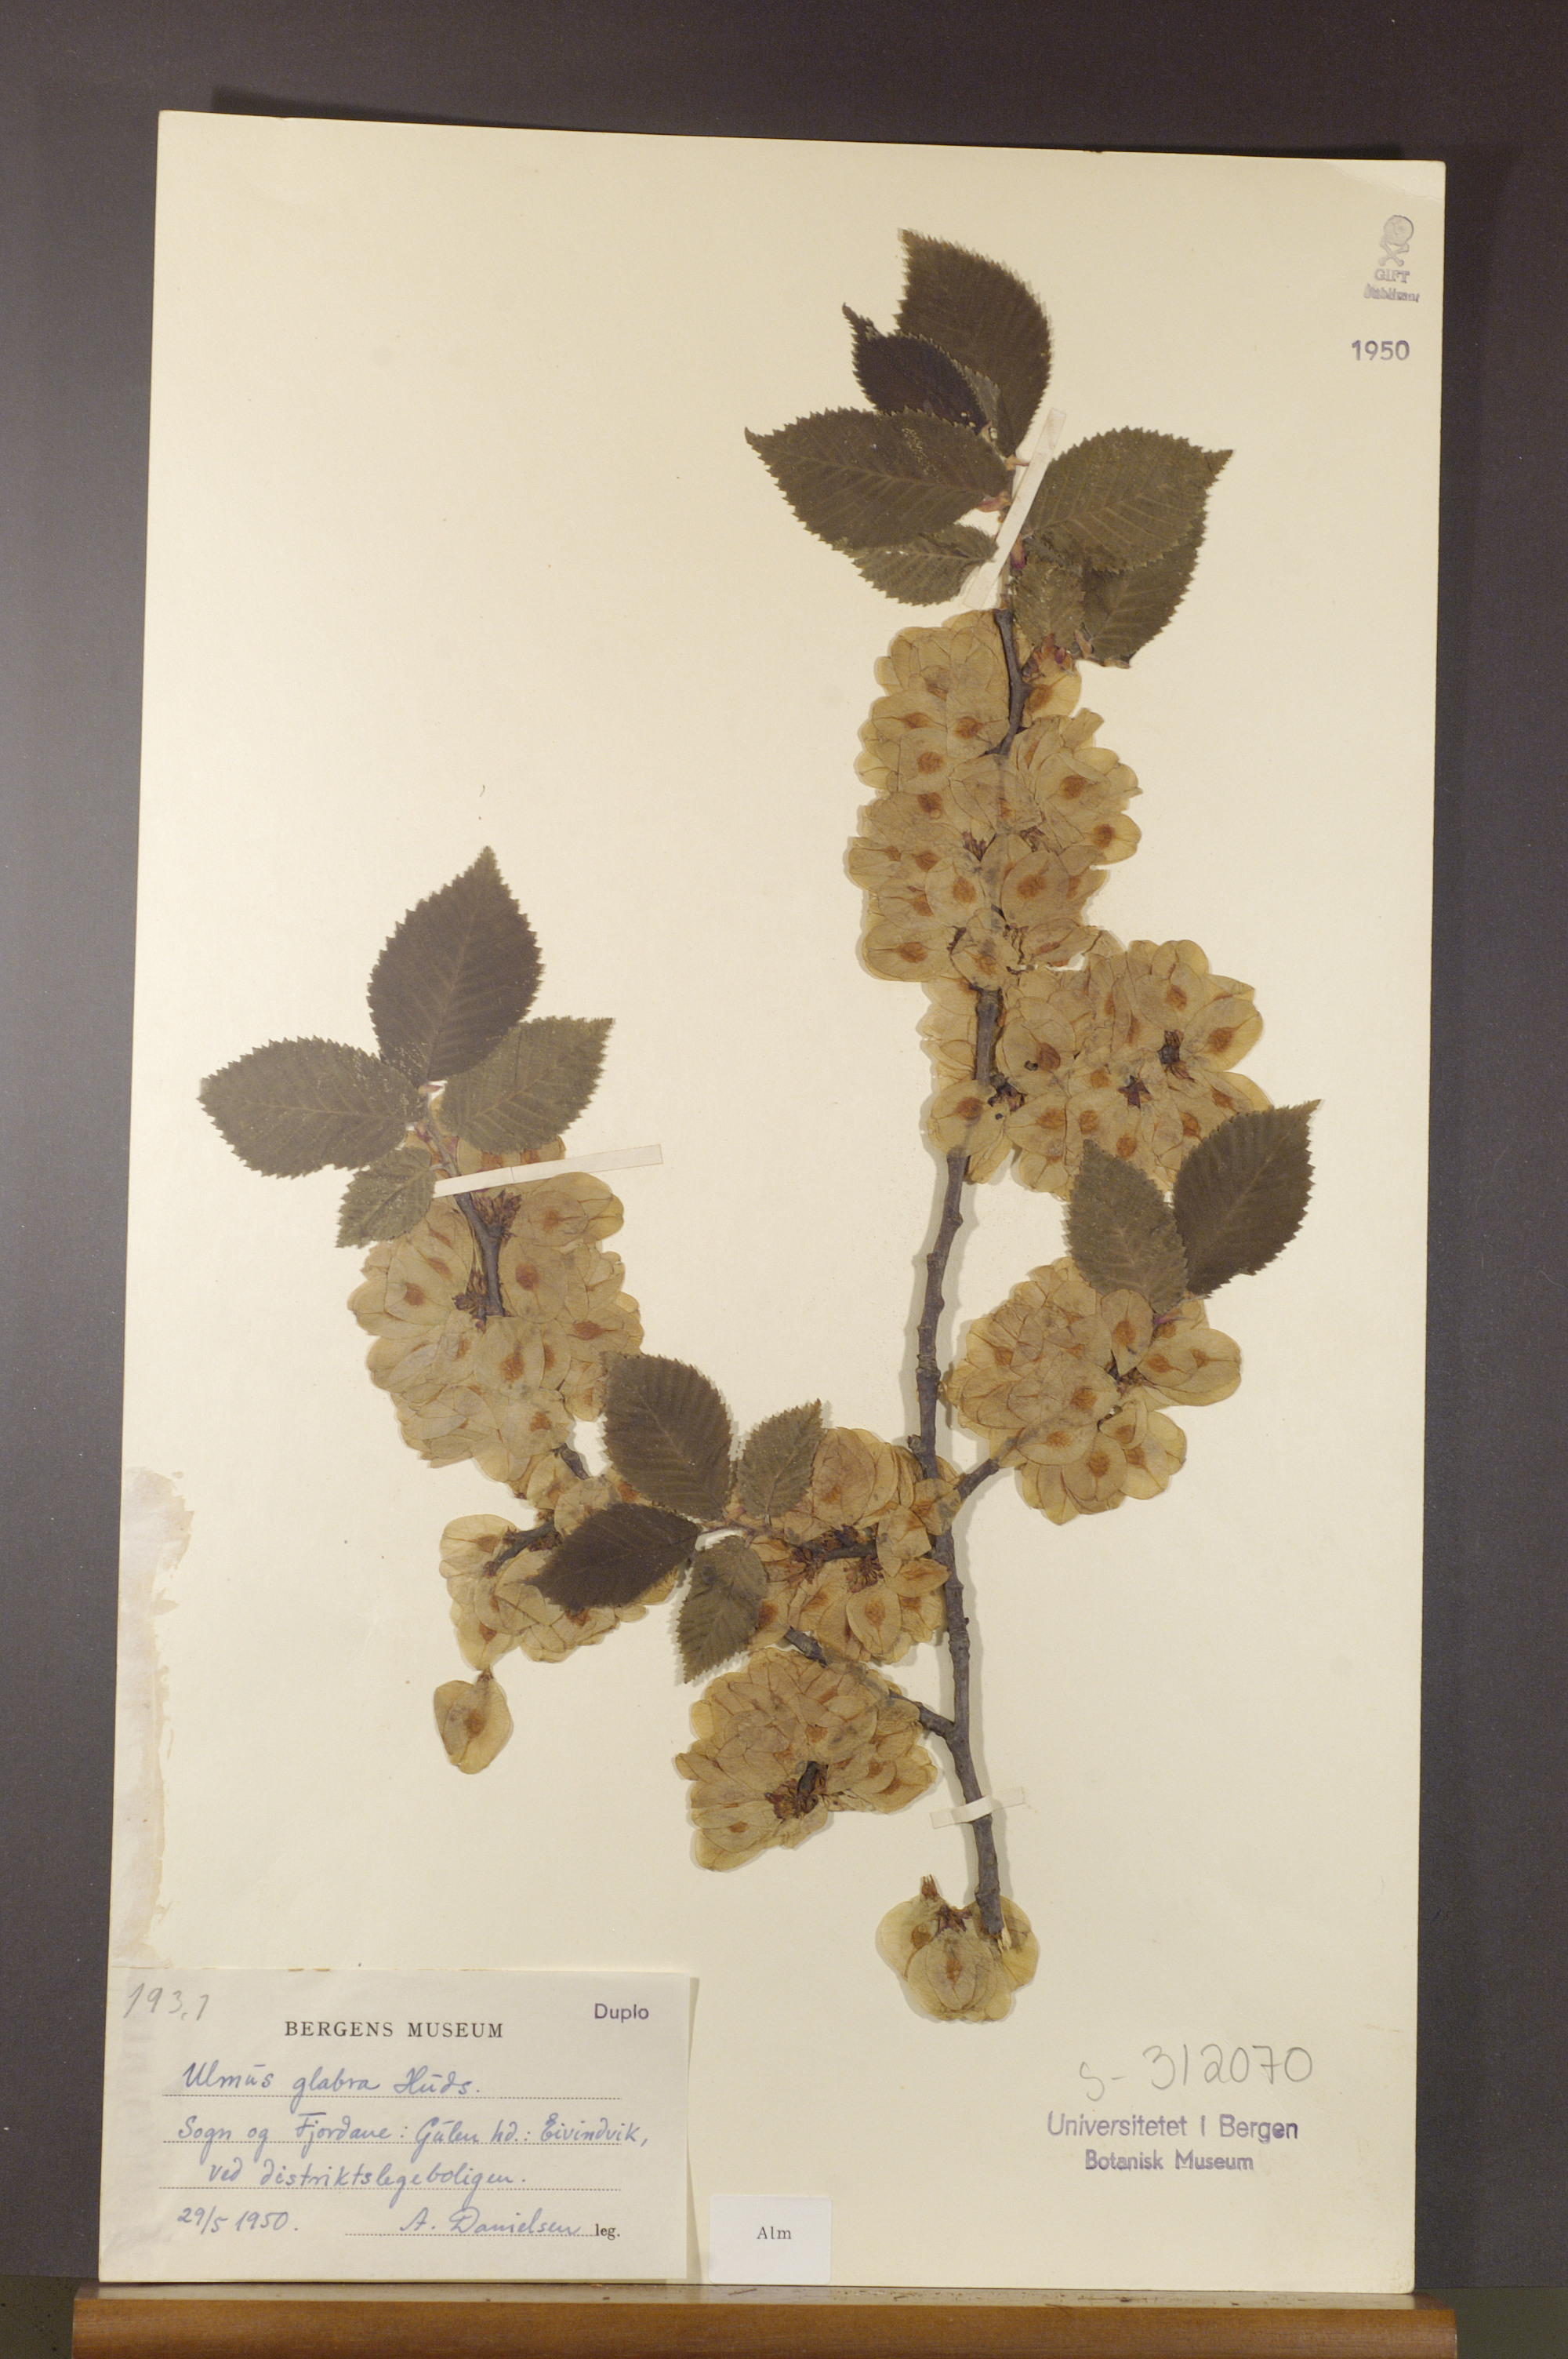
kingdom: Plantae
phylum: Tracheophyta
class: Magnoliopsida
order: Rosales
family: Ulmaceae
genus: Ulmus
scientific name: Ulmus glabra
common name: Wych elm
